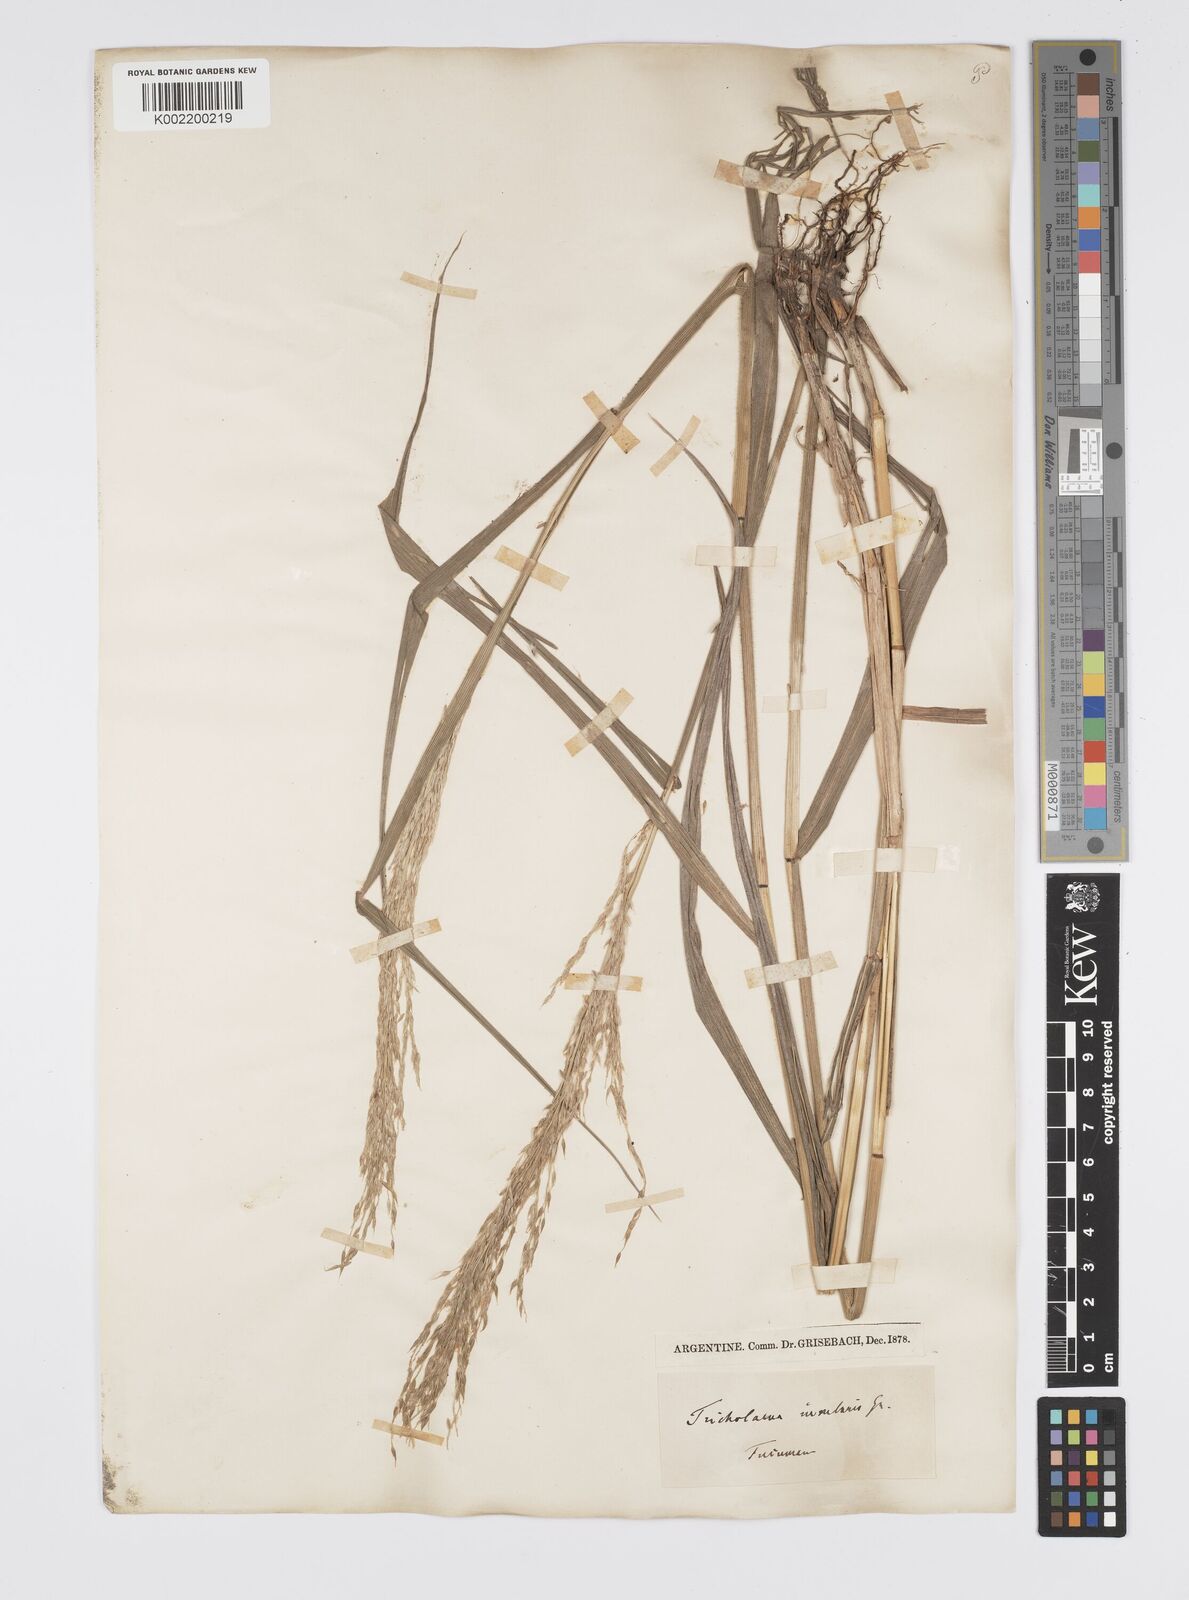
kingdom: Plantae
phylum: Tracheophyta
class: Liliopsida
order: Poales
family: Poaceae
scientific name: Poaceae
